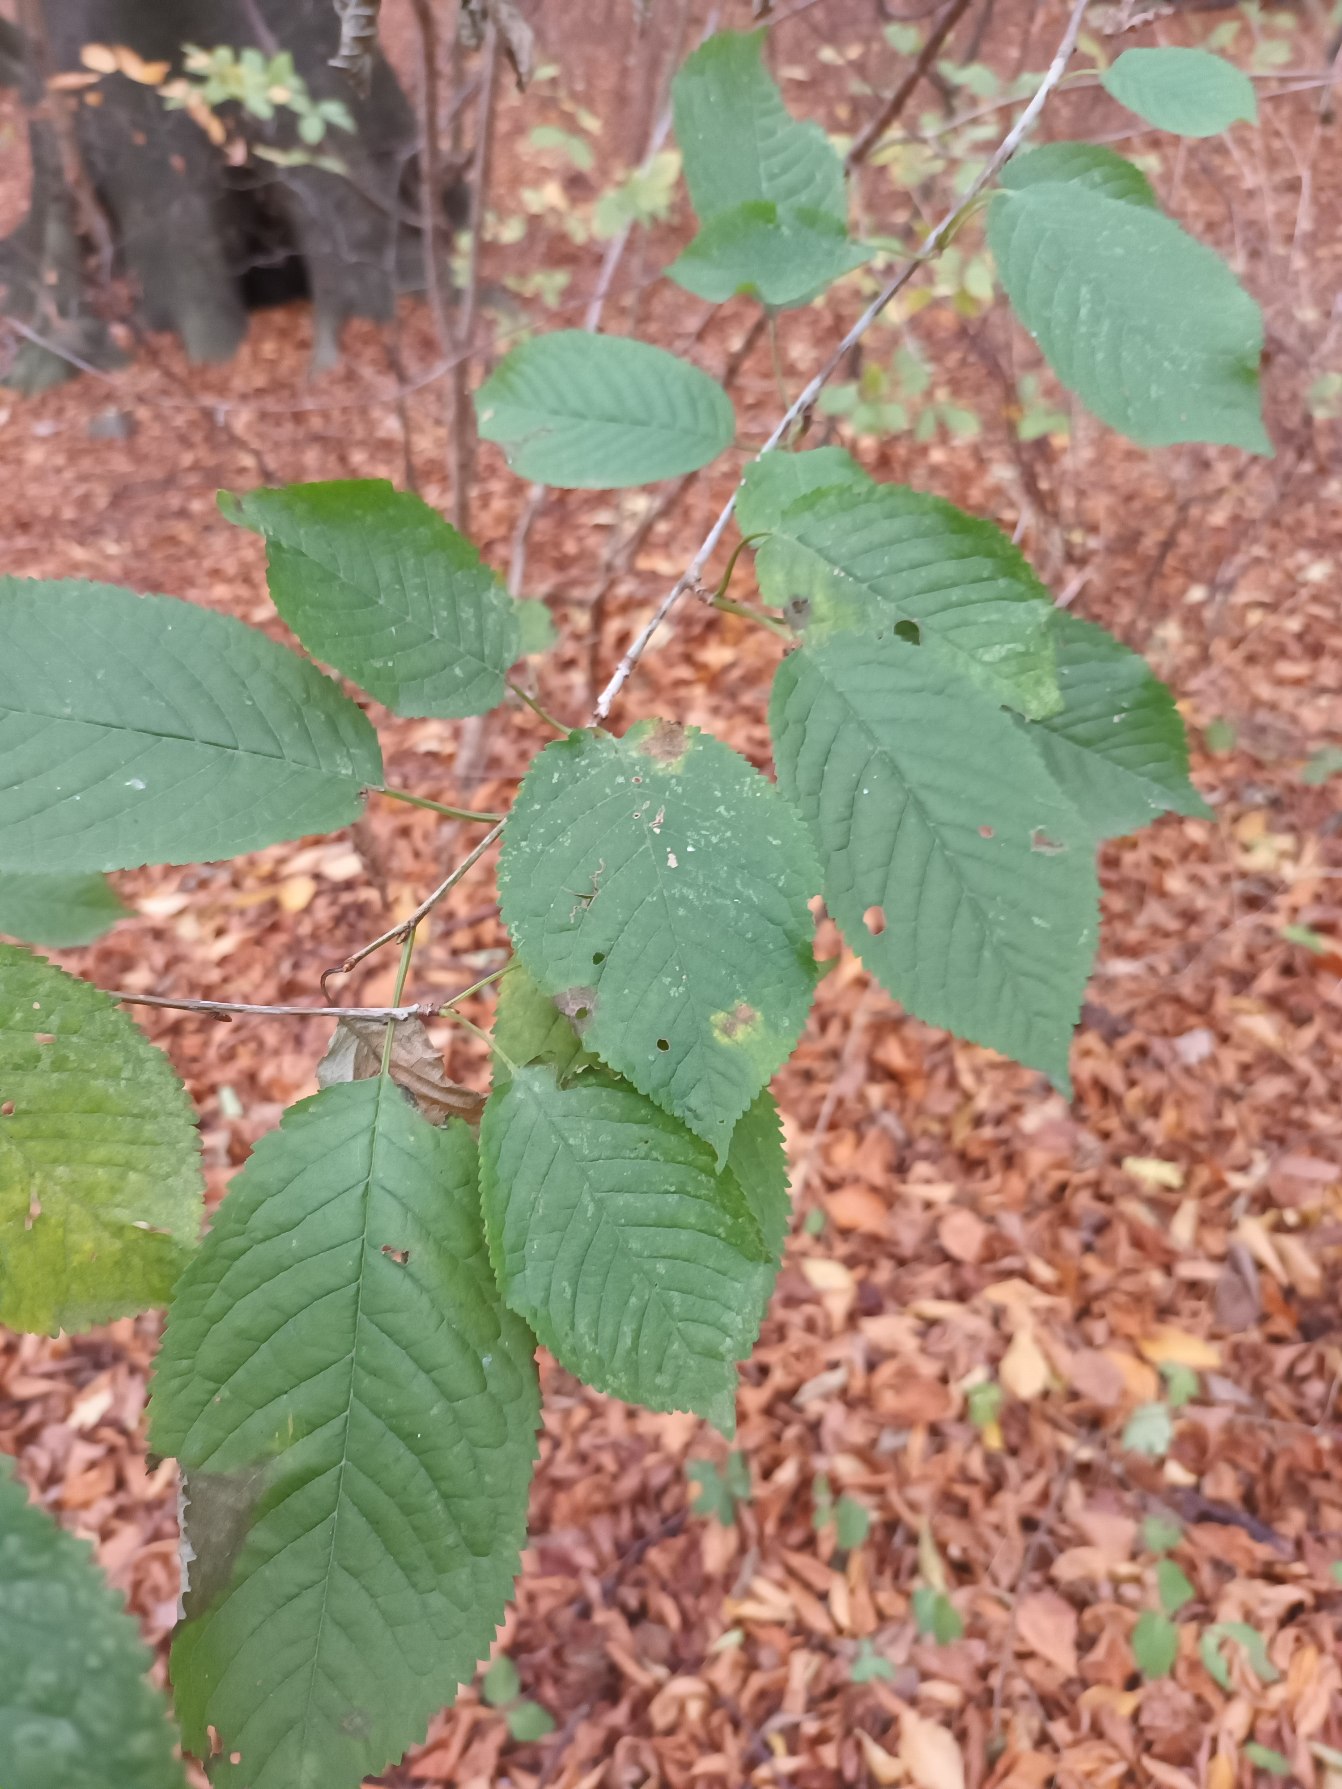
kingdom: Plantae
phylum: Tracheophyta
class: Magnoliopsida
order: Rosales
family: Rosaceae
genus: Prunus
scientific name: Prunus avium
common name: Fugle-kirsebær
